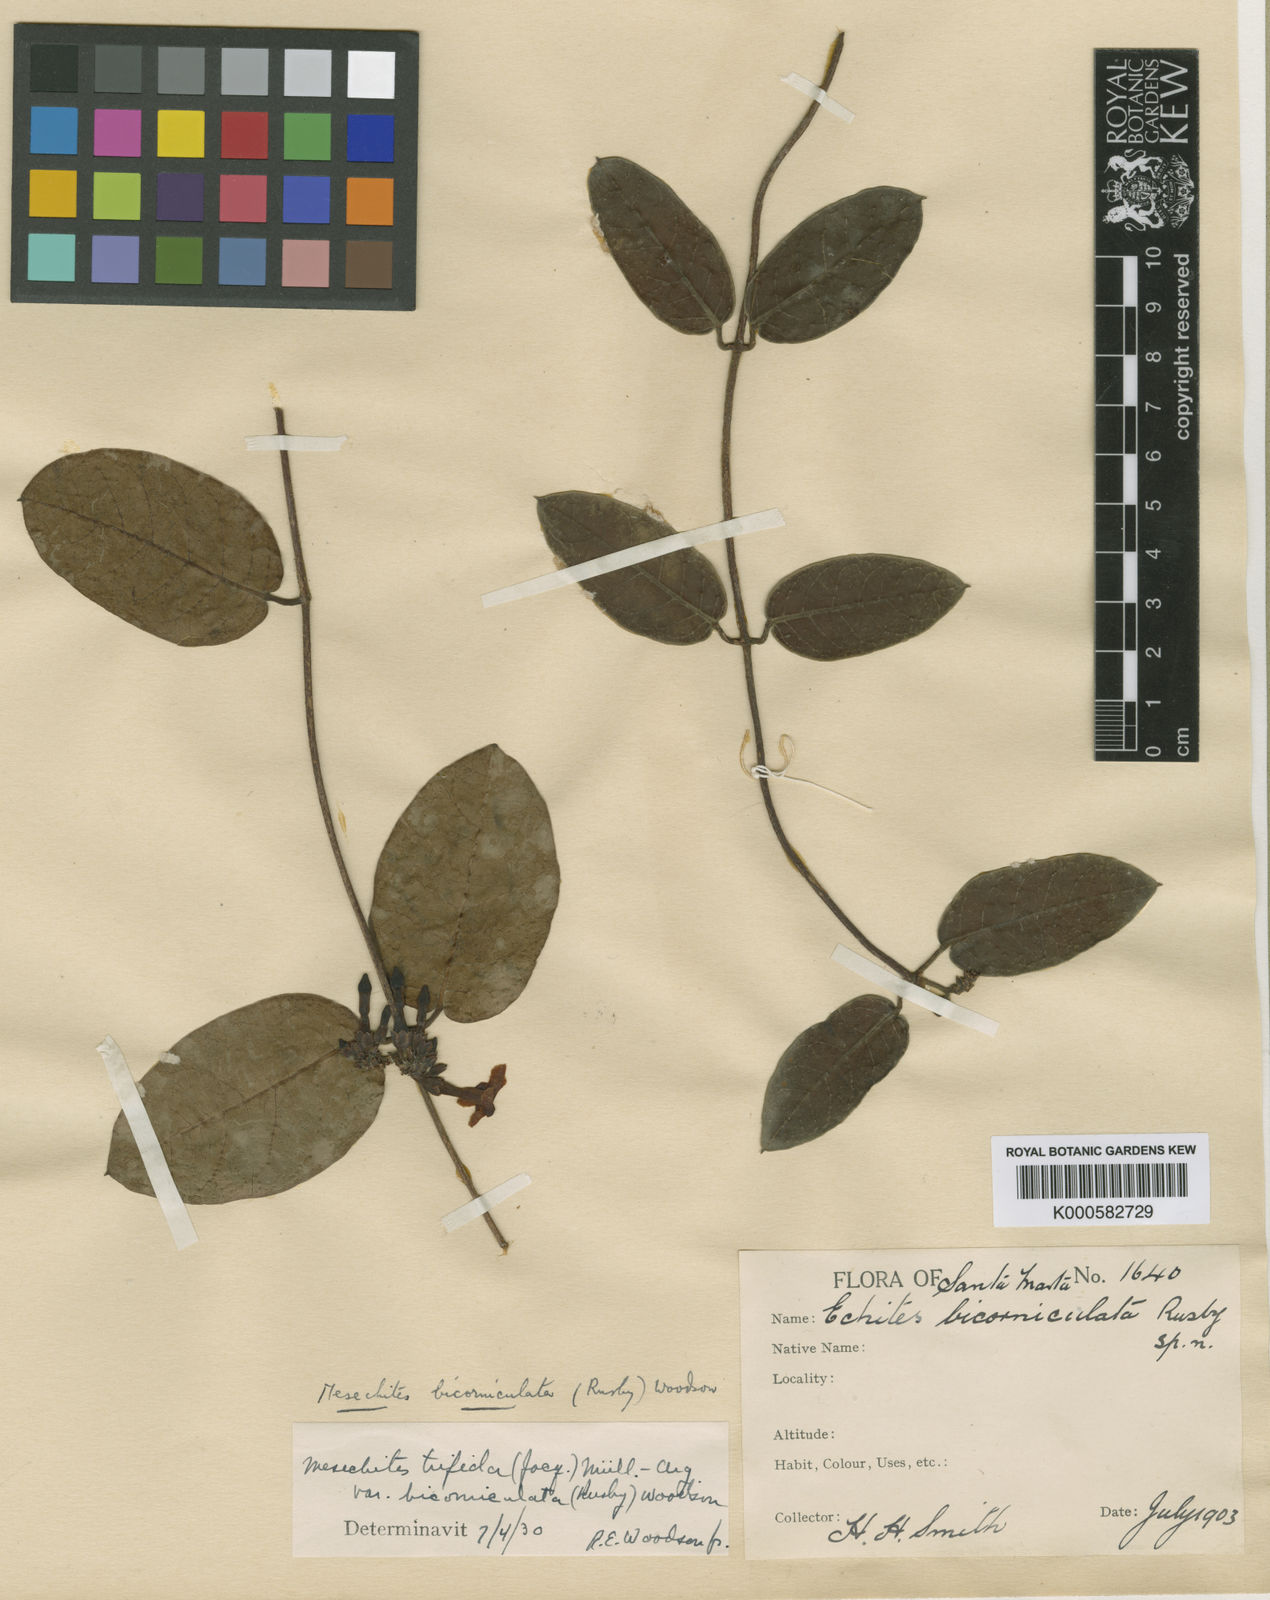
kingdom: Plantae
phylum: Tracheophyta
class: Magnoliopsida
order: Gentianales
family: Apocynaceae
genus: Mesechites
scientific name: Mesechites
